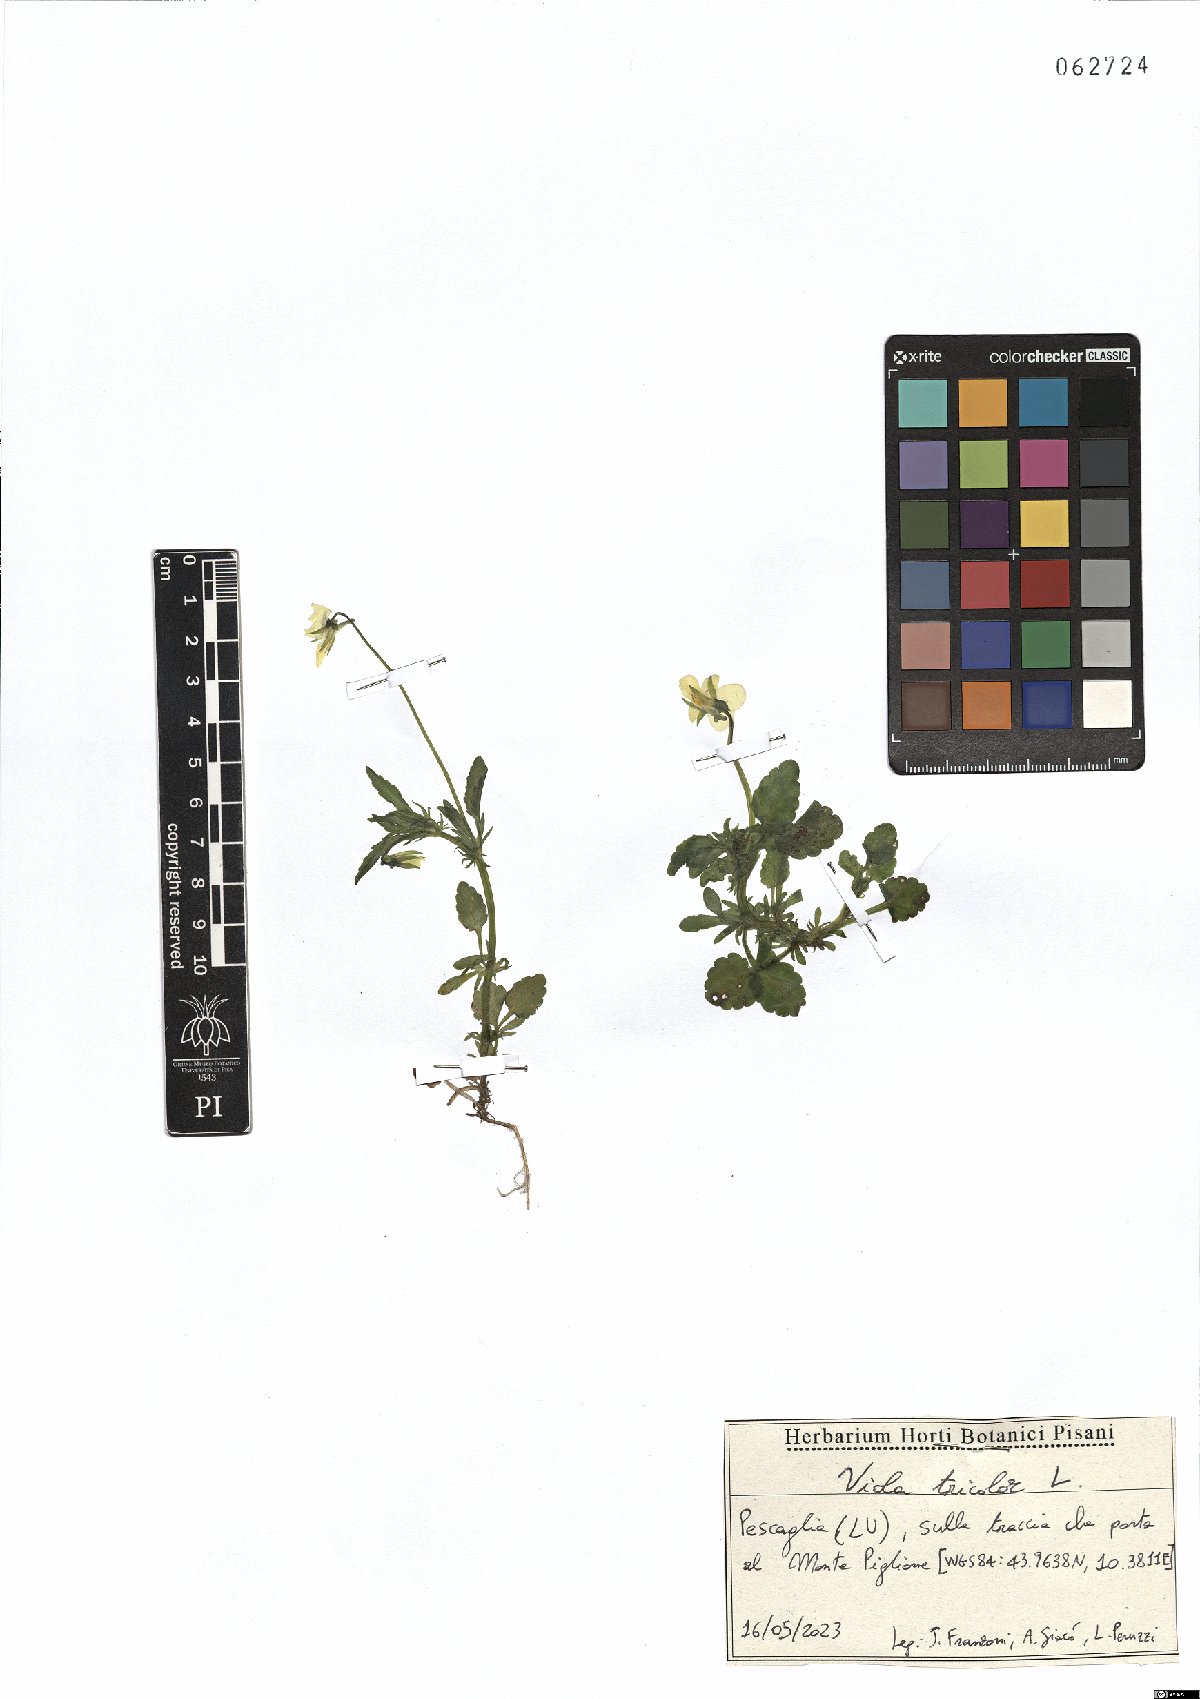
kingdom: Plantae
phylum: Tracheophyta
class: Magnoliopsida
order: Malpighiales
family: Violaceae
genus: Viola
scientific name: Viola tricolor
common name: Pansy
